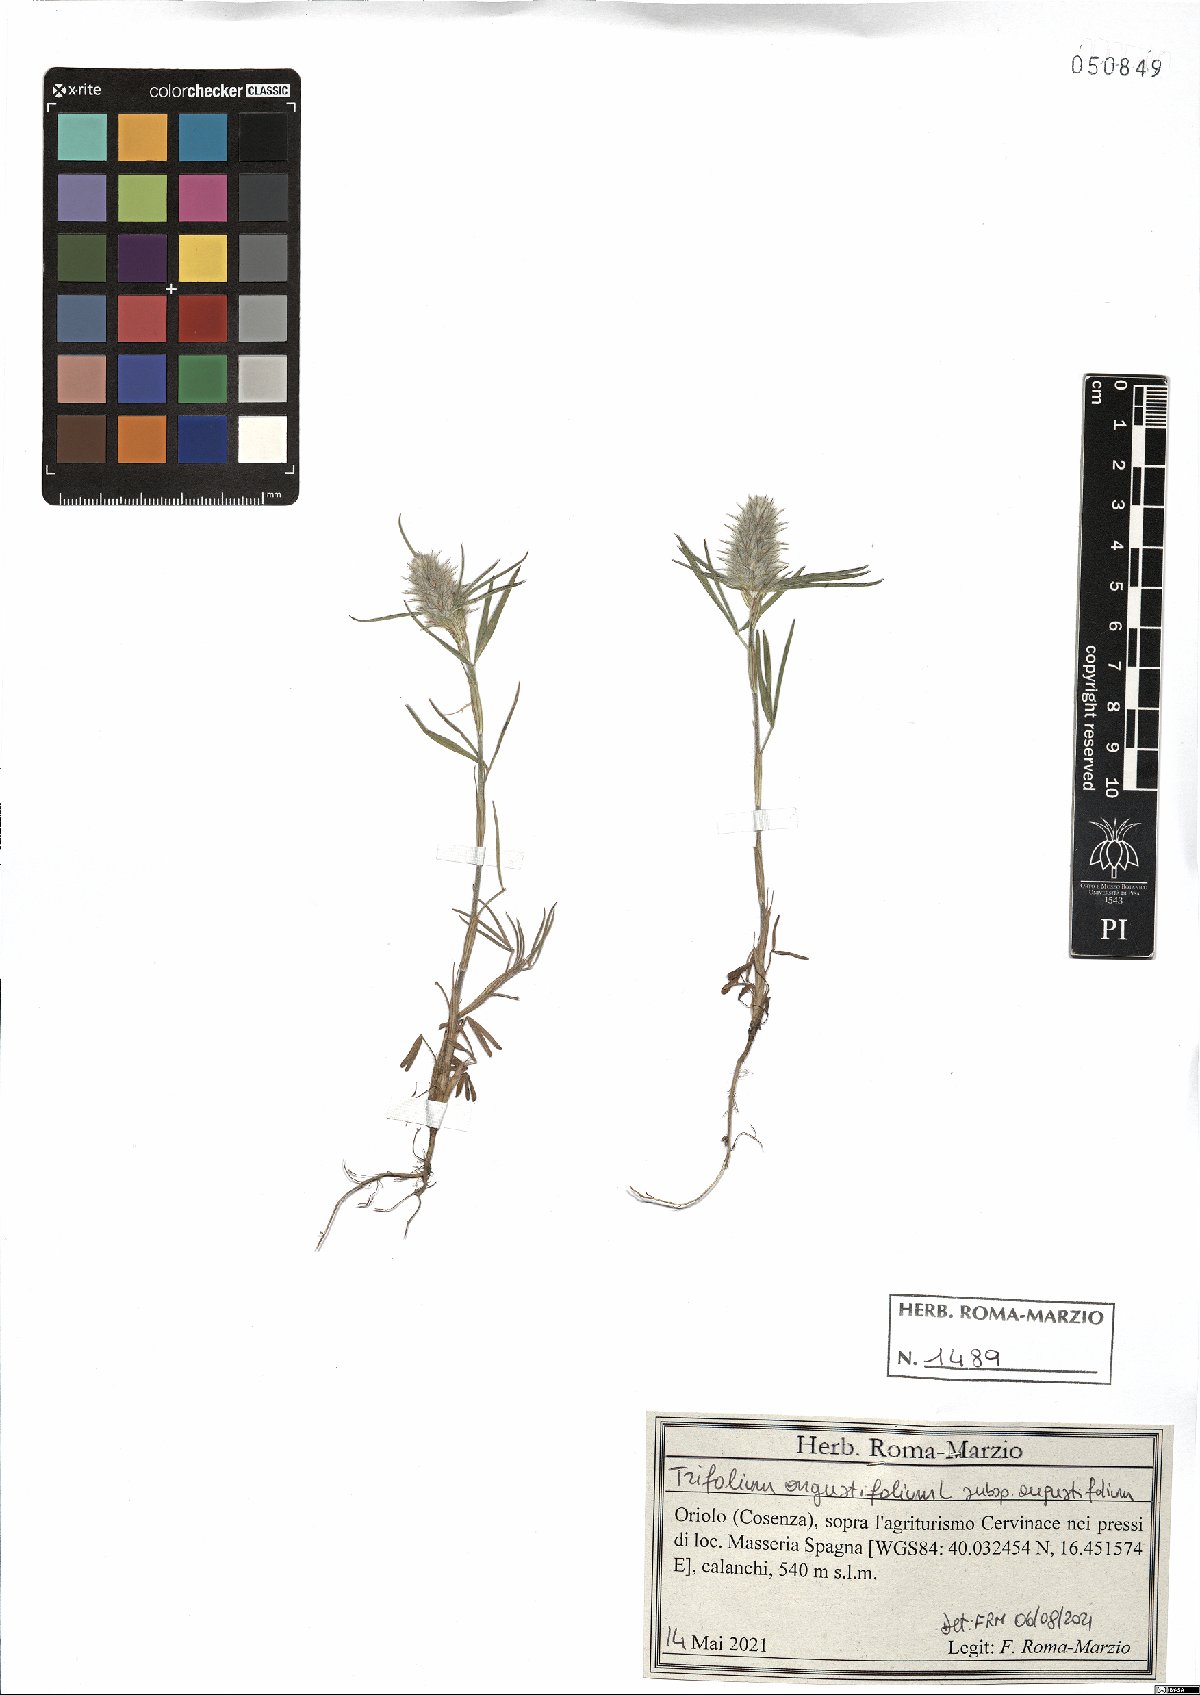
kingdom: Plantae
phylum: Tracheophyta
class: Magnoliopsida
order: Fabales
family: Fabaceae
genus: Trifolium
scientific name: Trifolium angustifolium
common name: Narrow clover
